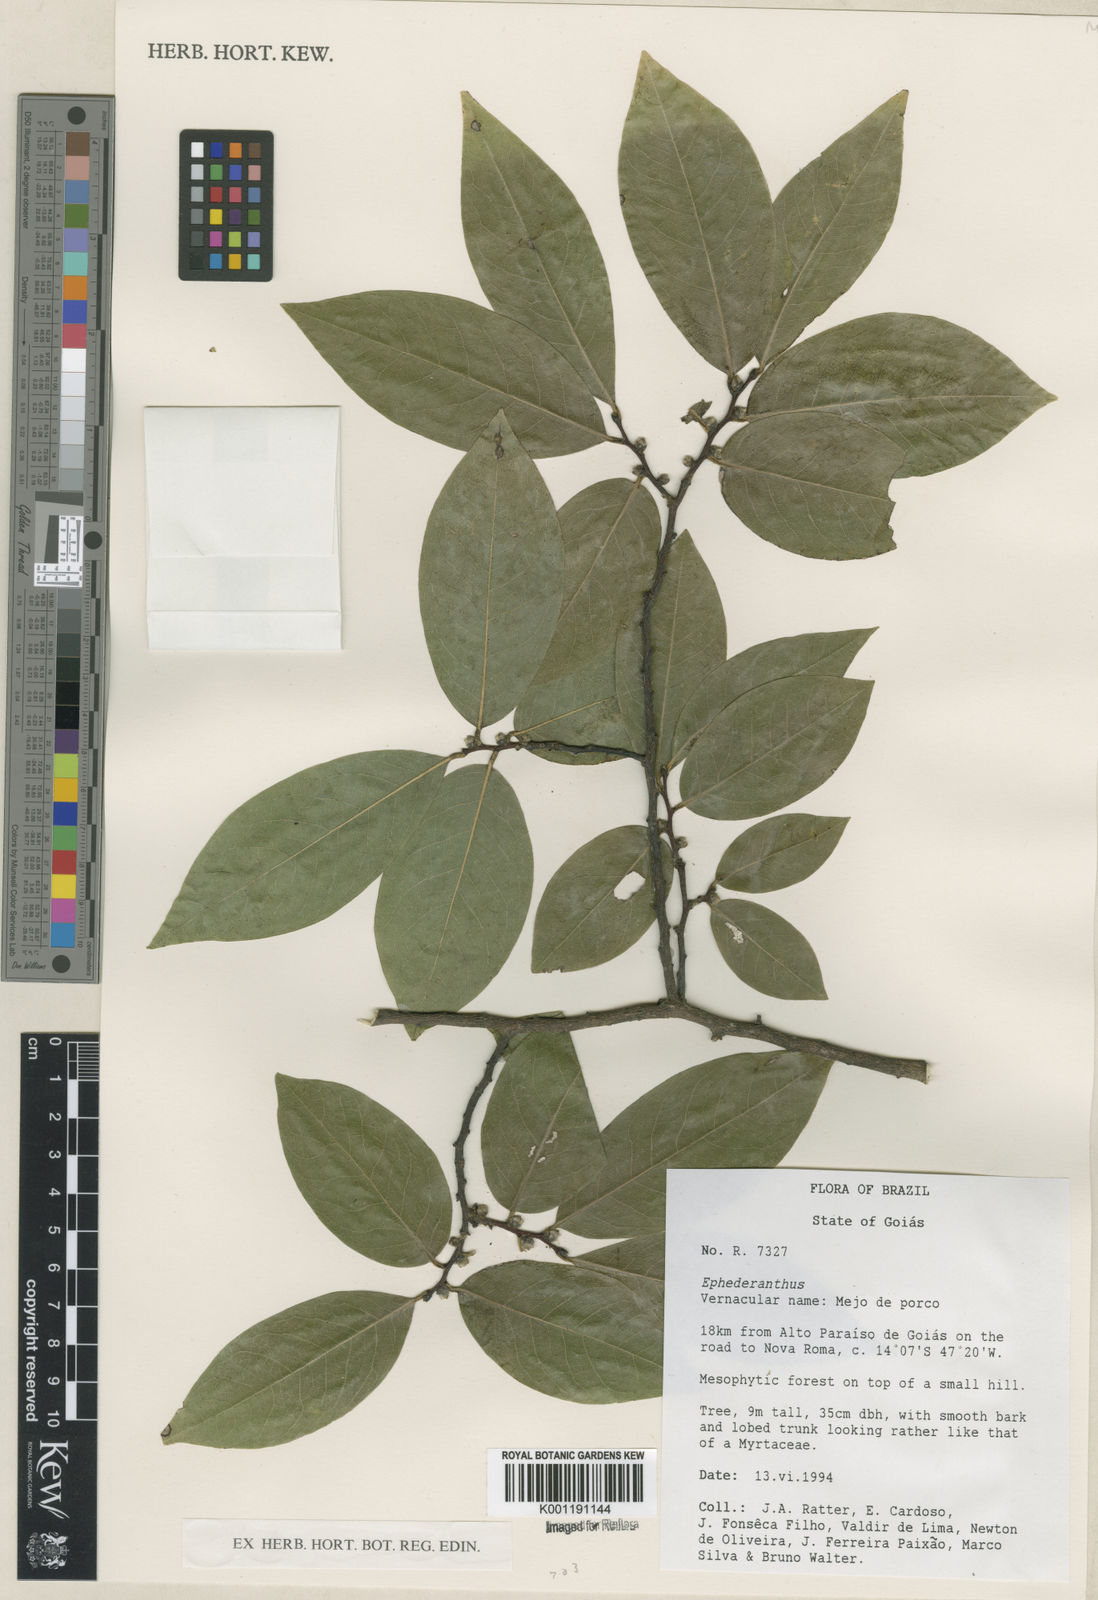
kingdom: Plantae
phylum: Tracheophyta
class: Magnoliopsida
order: Magnoliales
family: Annonaceae
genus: Ephedranthus
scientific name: Ephedranthus
